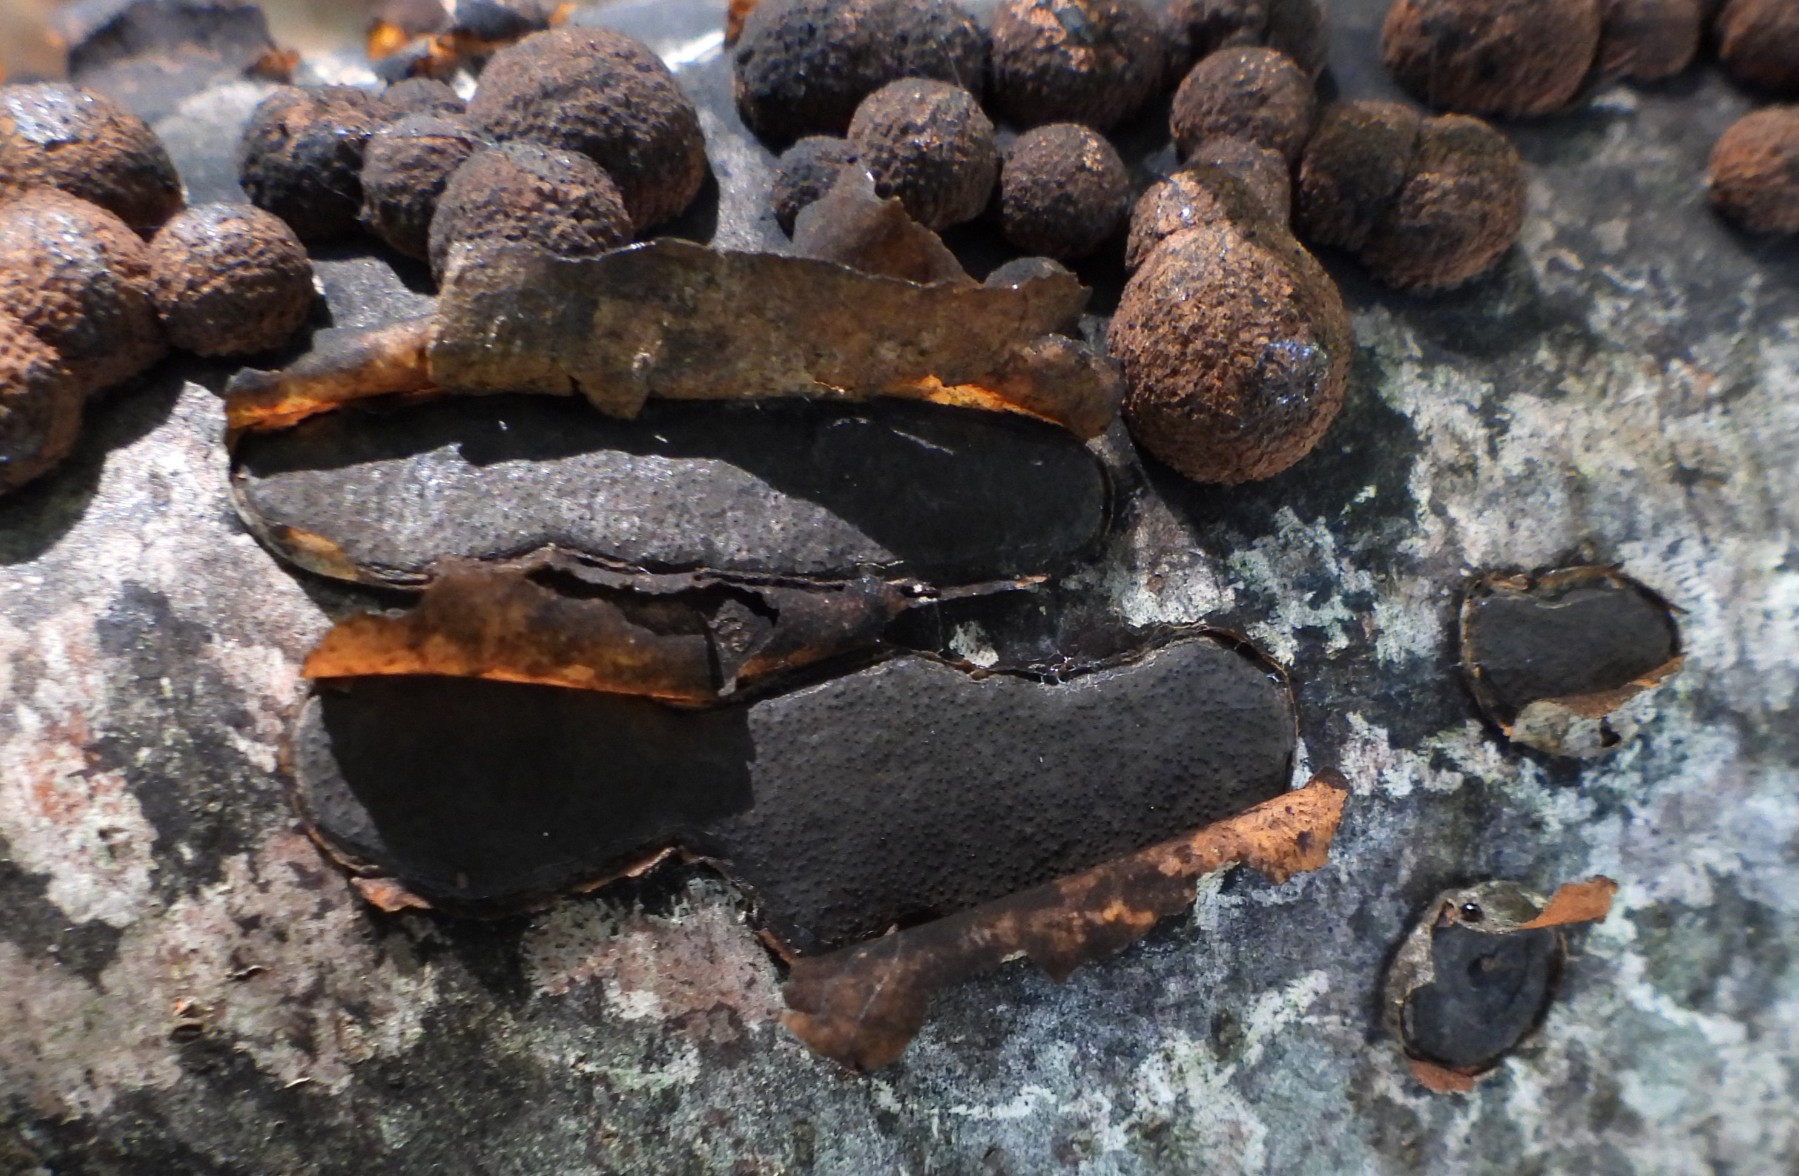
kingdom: Fungi
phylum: Ascomycota
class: Sordariomycetes
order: Xylariales
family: Graphostromataceae
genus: Biscogniauxia
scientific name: Biscogniauxia nummularia
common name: bøge-kulskive
